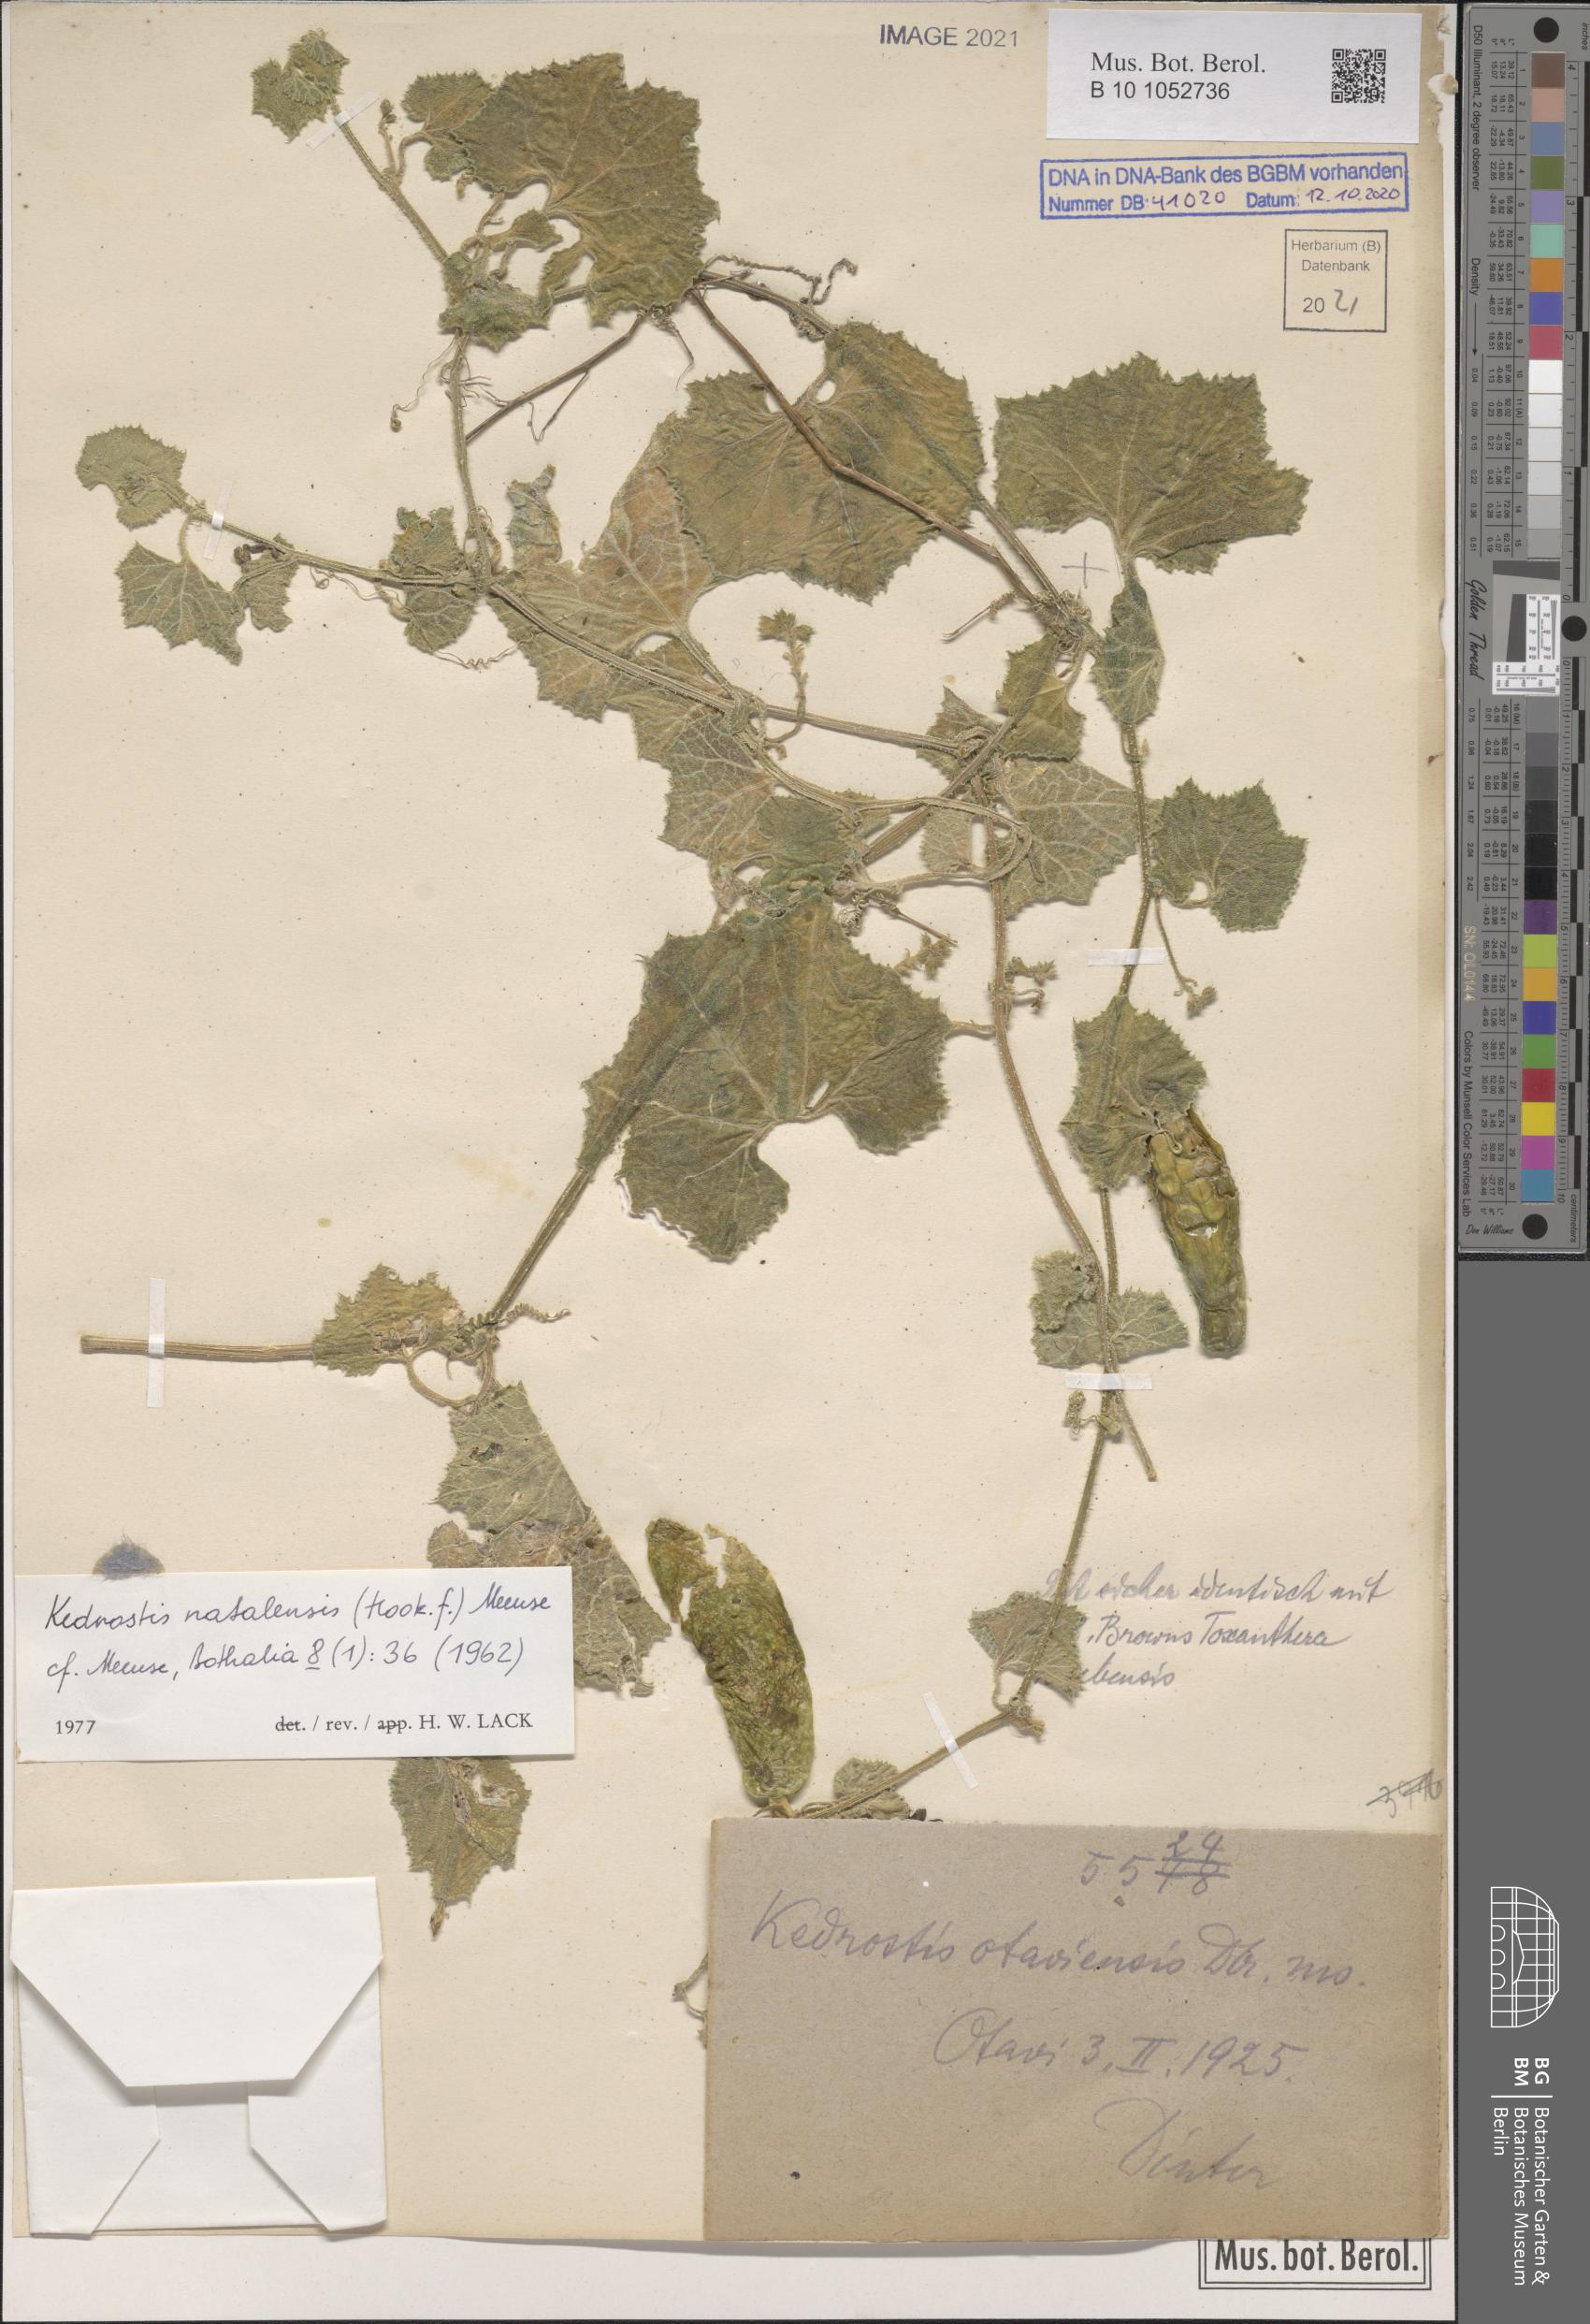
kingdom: Plantae
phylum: Tracheophyta
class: Magnoliopsida
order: Cucurbitales
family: Cucurbitaceae
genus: Kedrostis
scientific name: Kedrostis hirtella
